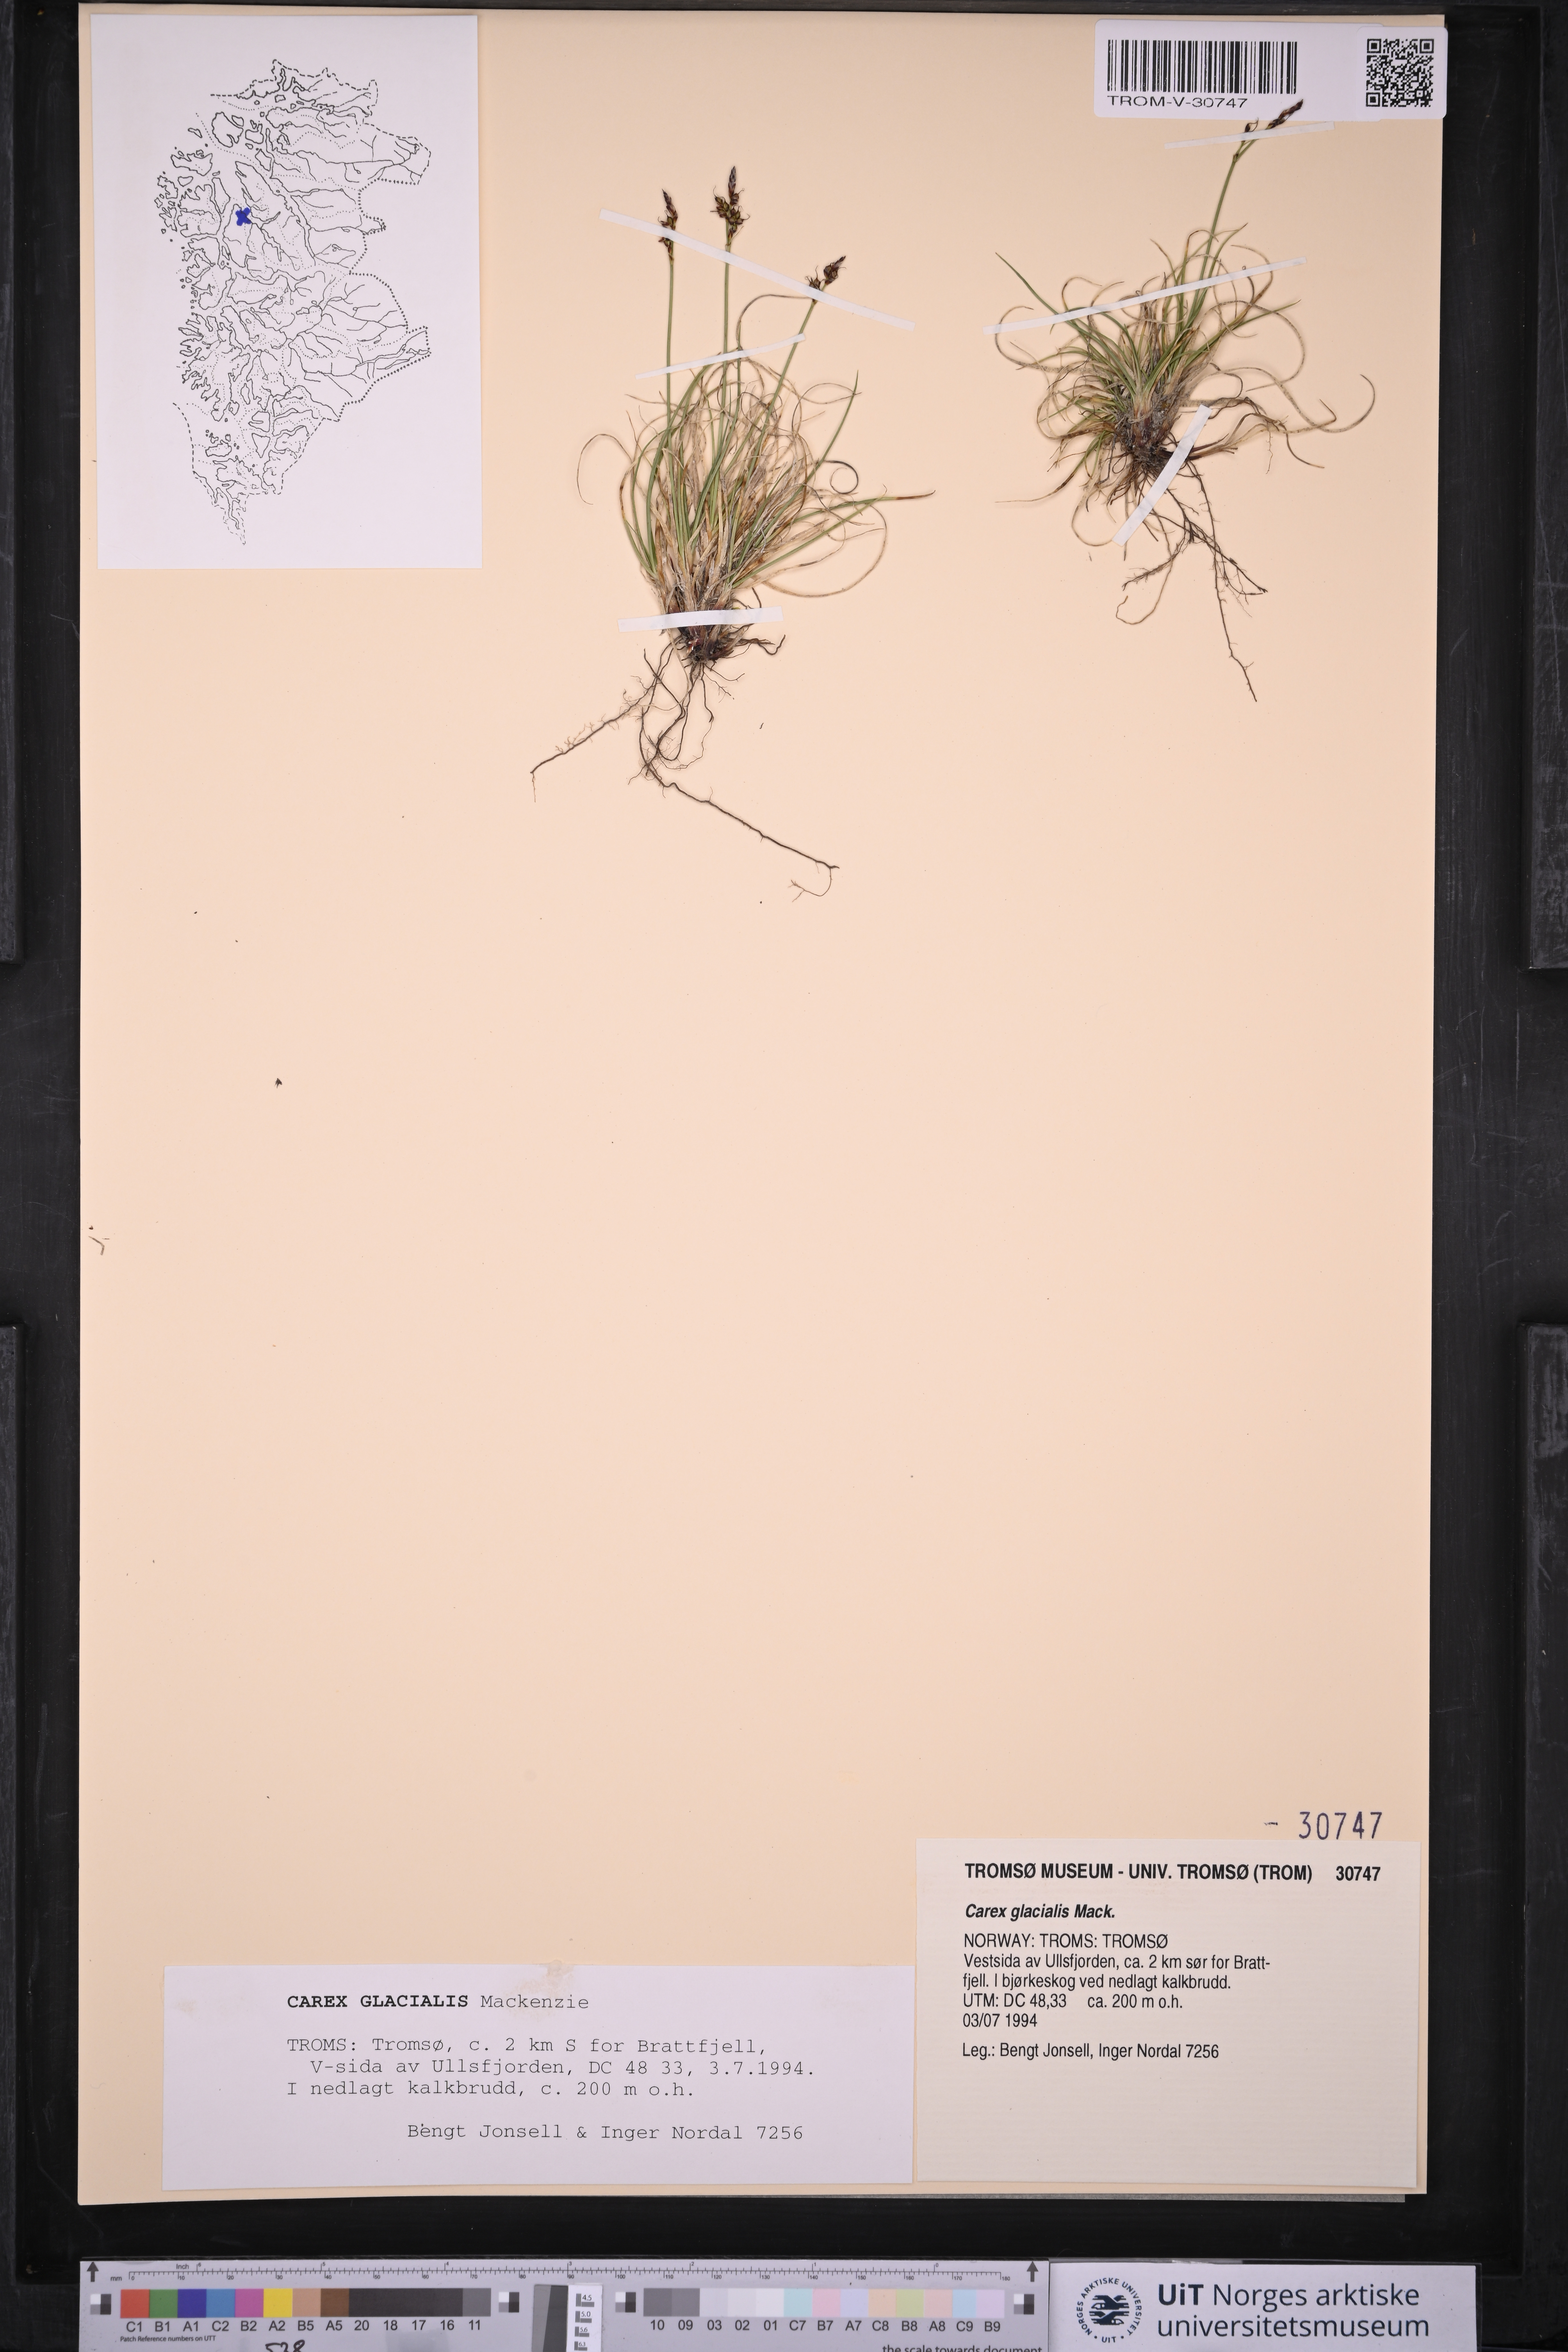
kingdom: Plantae
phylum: Tracheophyta
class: Liliopsida
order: Poales
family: Cyperaceae
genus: Carex
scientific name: Carex glacialis
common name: Newfoundland sedge
